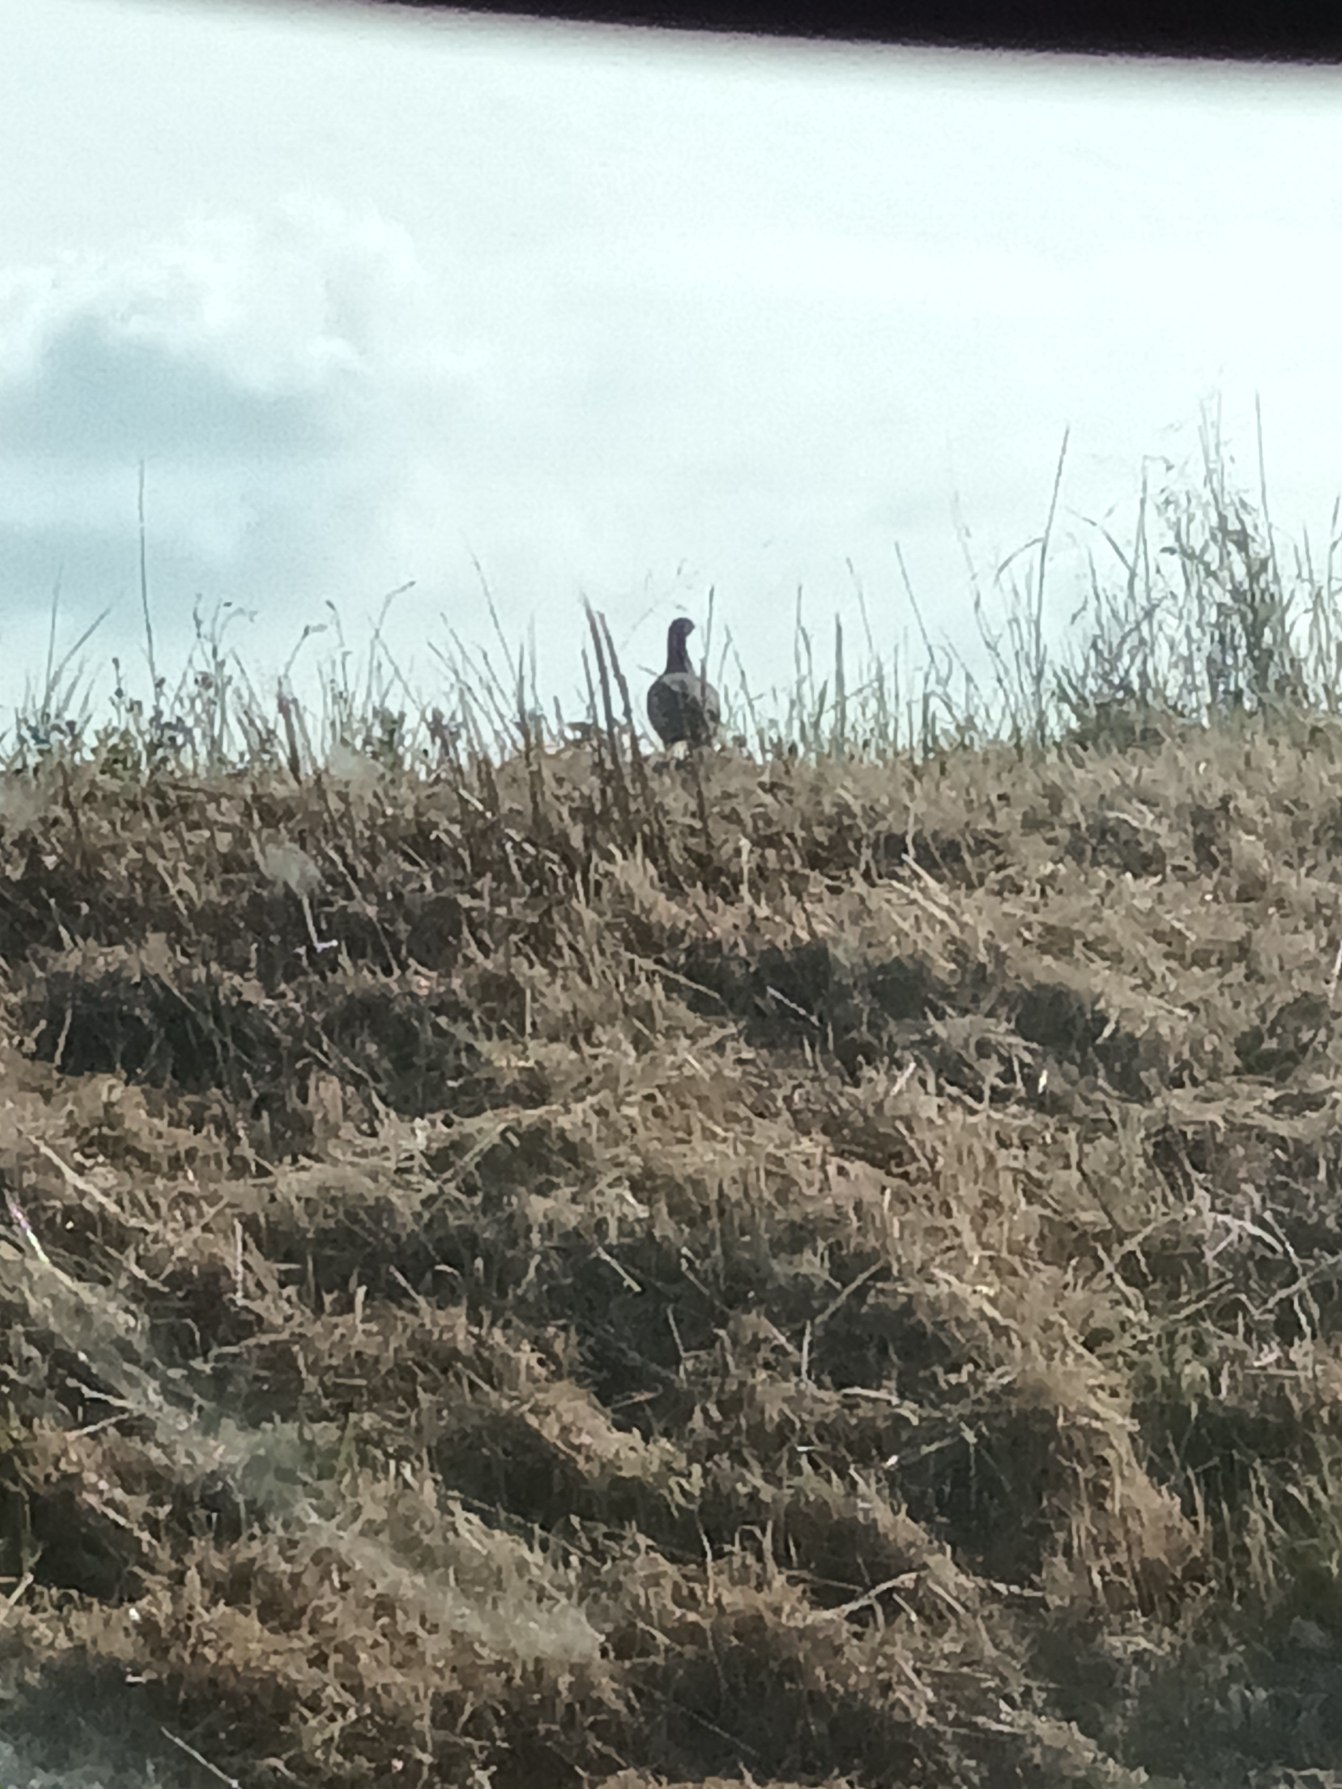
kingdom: Animalia
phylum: Chordata
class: Aves
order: Galliformes
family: Phasianidae
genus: Perdix
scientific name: Perdix perdix
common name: Agerhøne
